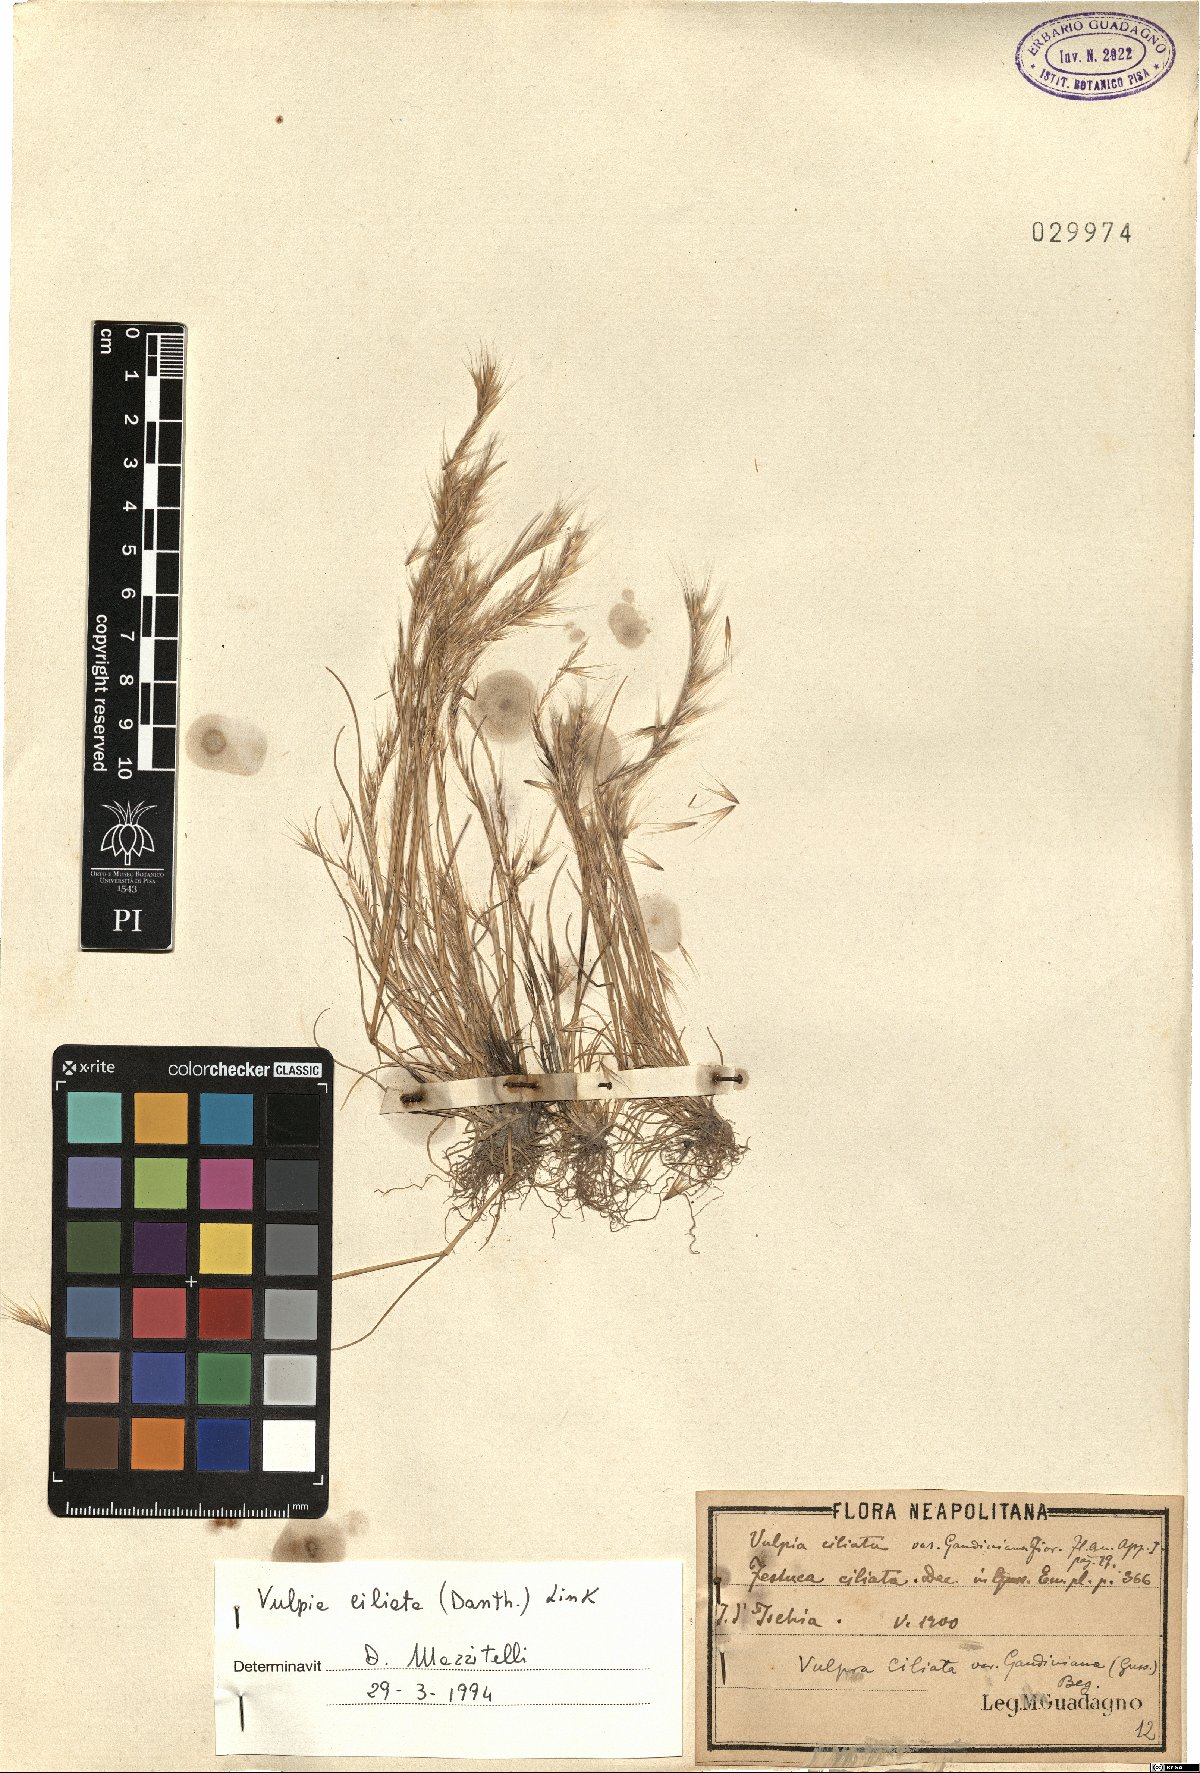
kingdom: Plantae
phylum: Tracheophyta
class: Liliopsida
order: Poales
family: Poaceae
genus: Festuca
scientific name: Festuca ambigua
